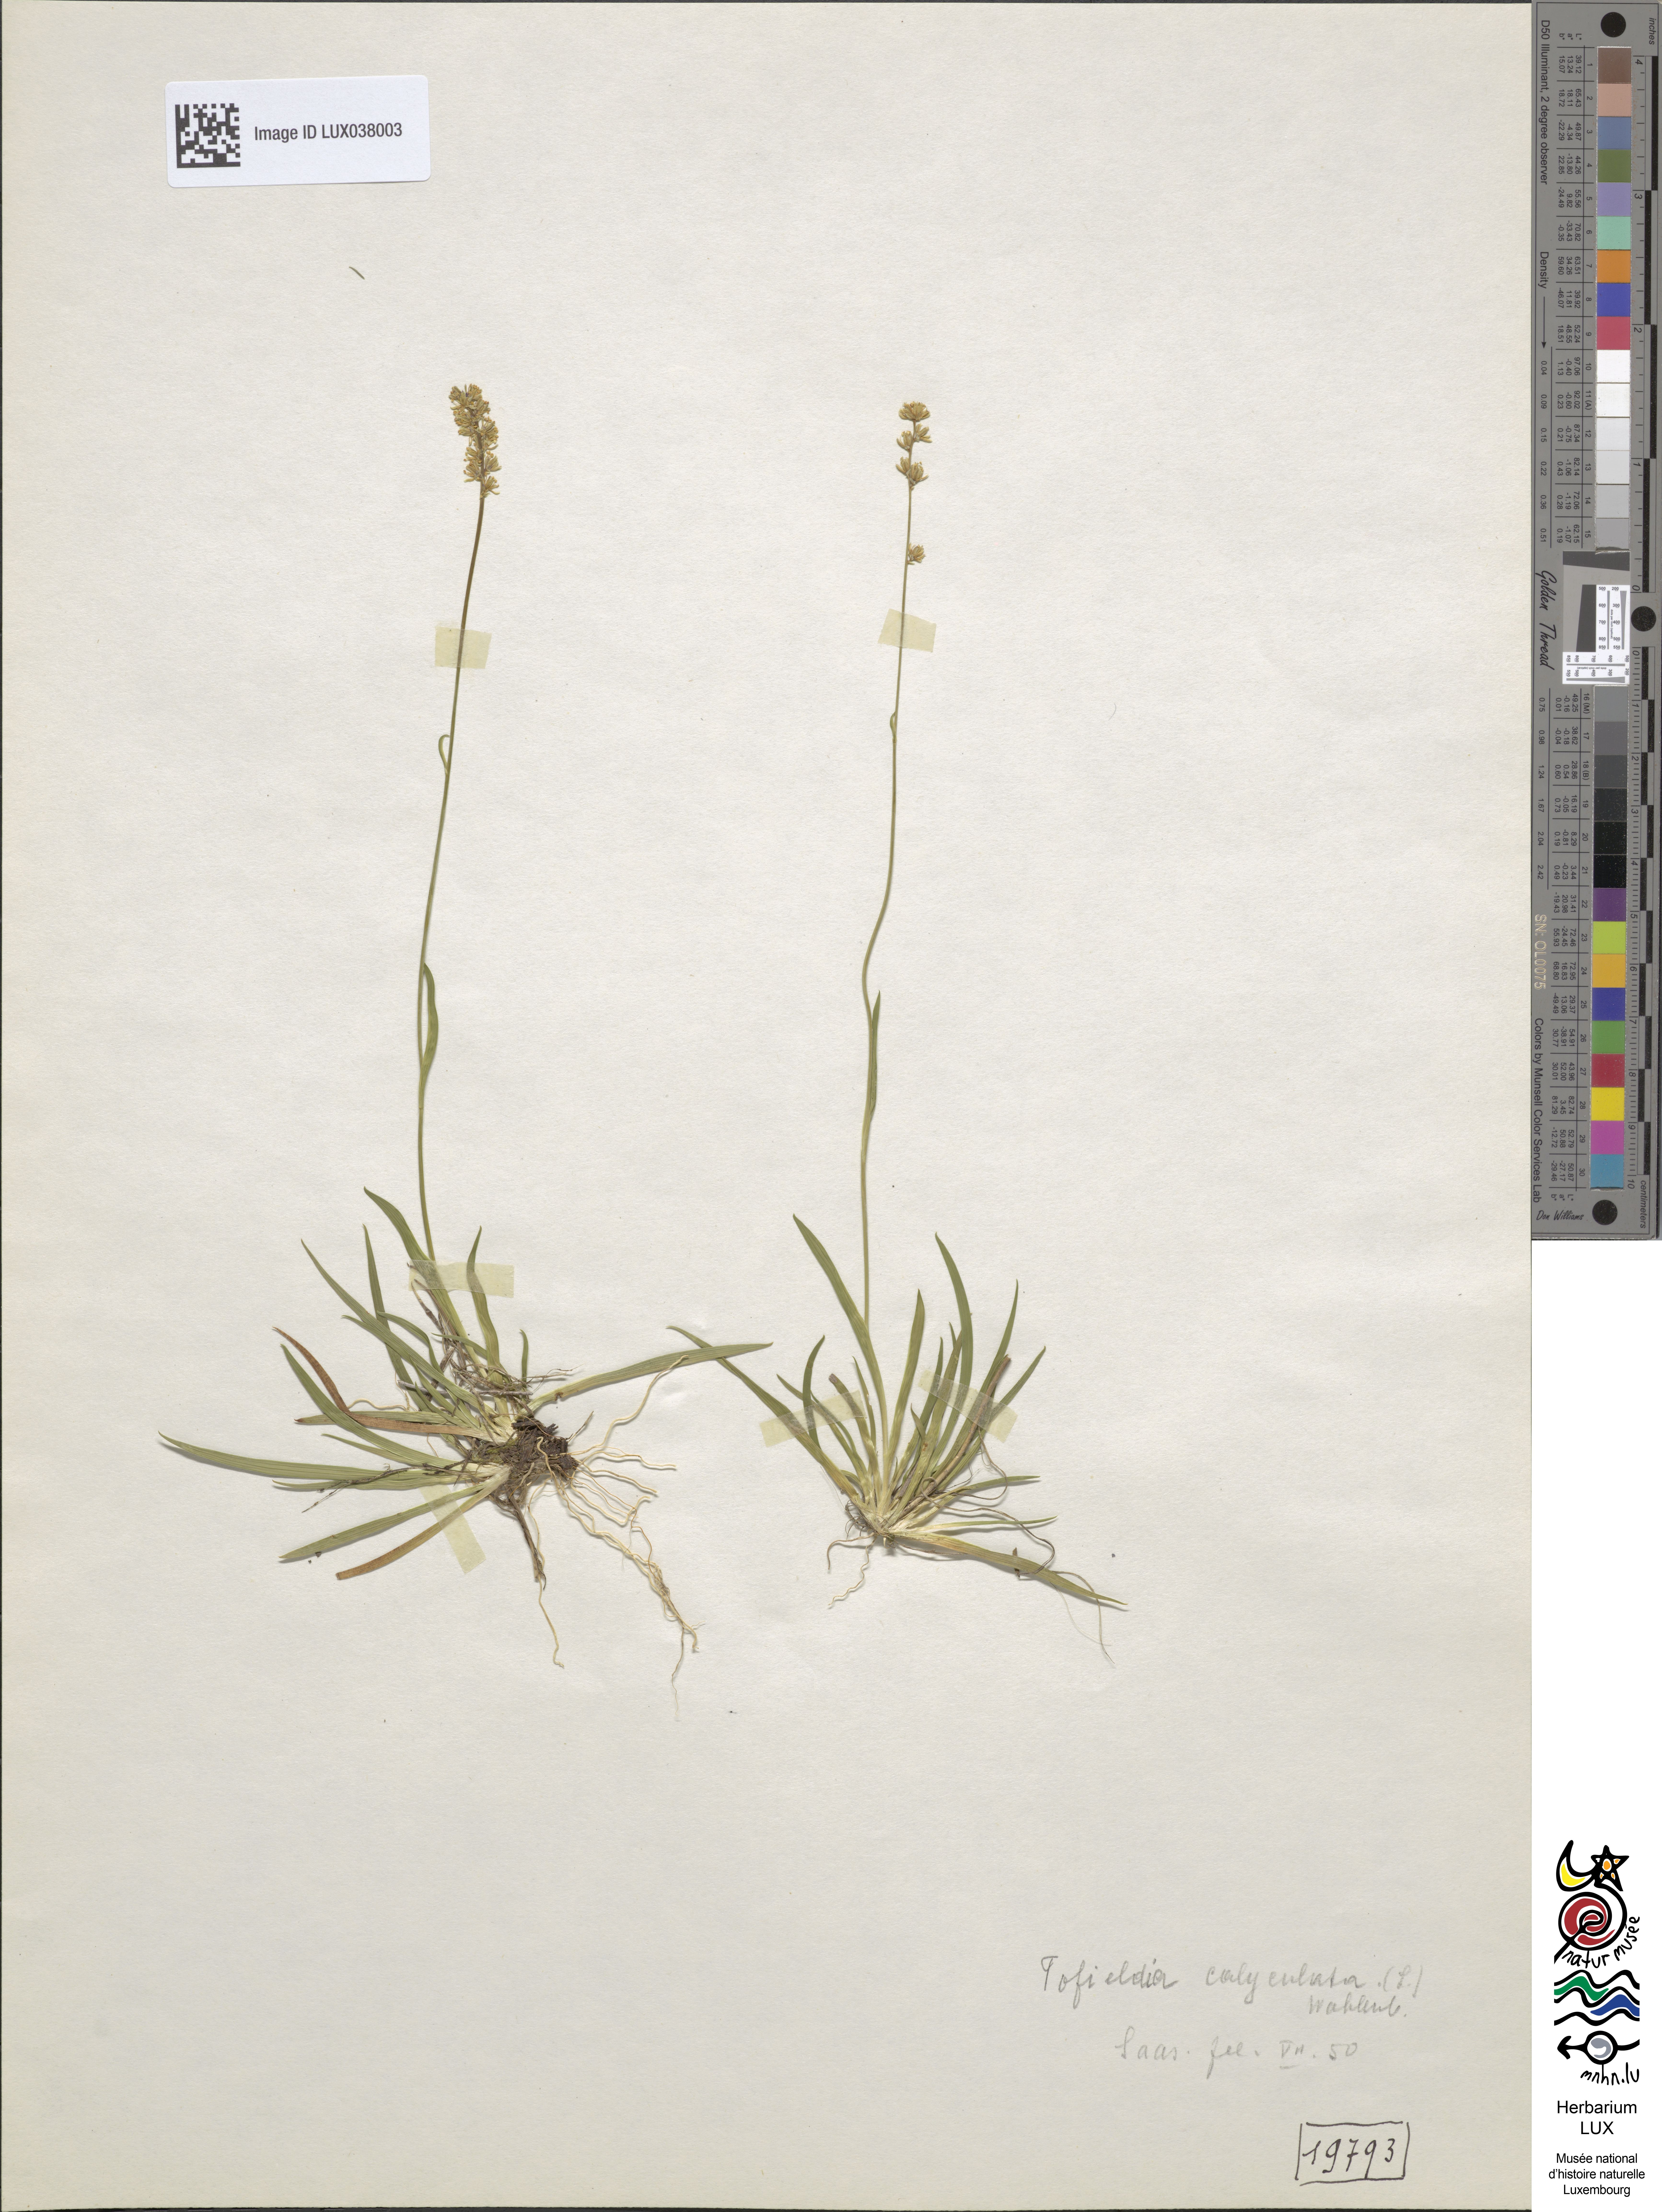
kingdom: Plantae
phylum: Tracheophyta
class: Liliopsida
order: Alismatales
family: Tofieldiaceae
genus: Tofieldia
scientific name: Tofieldia calyculata
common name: German-asphodel
